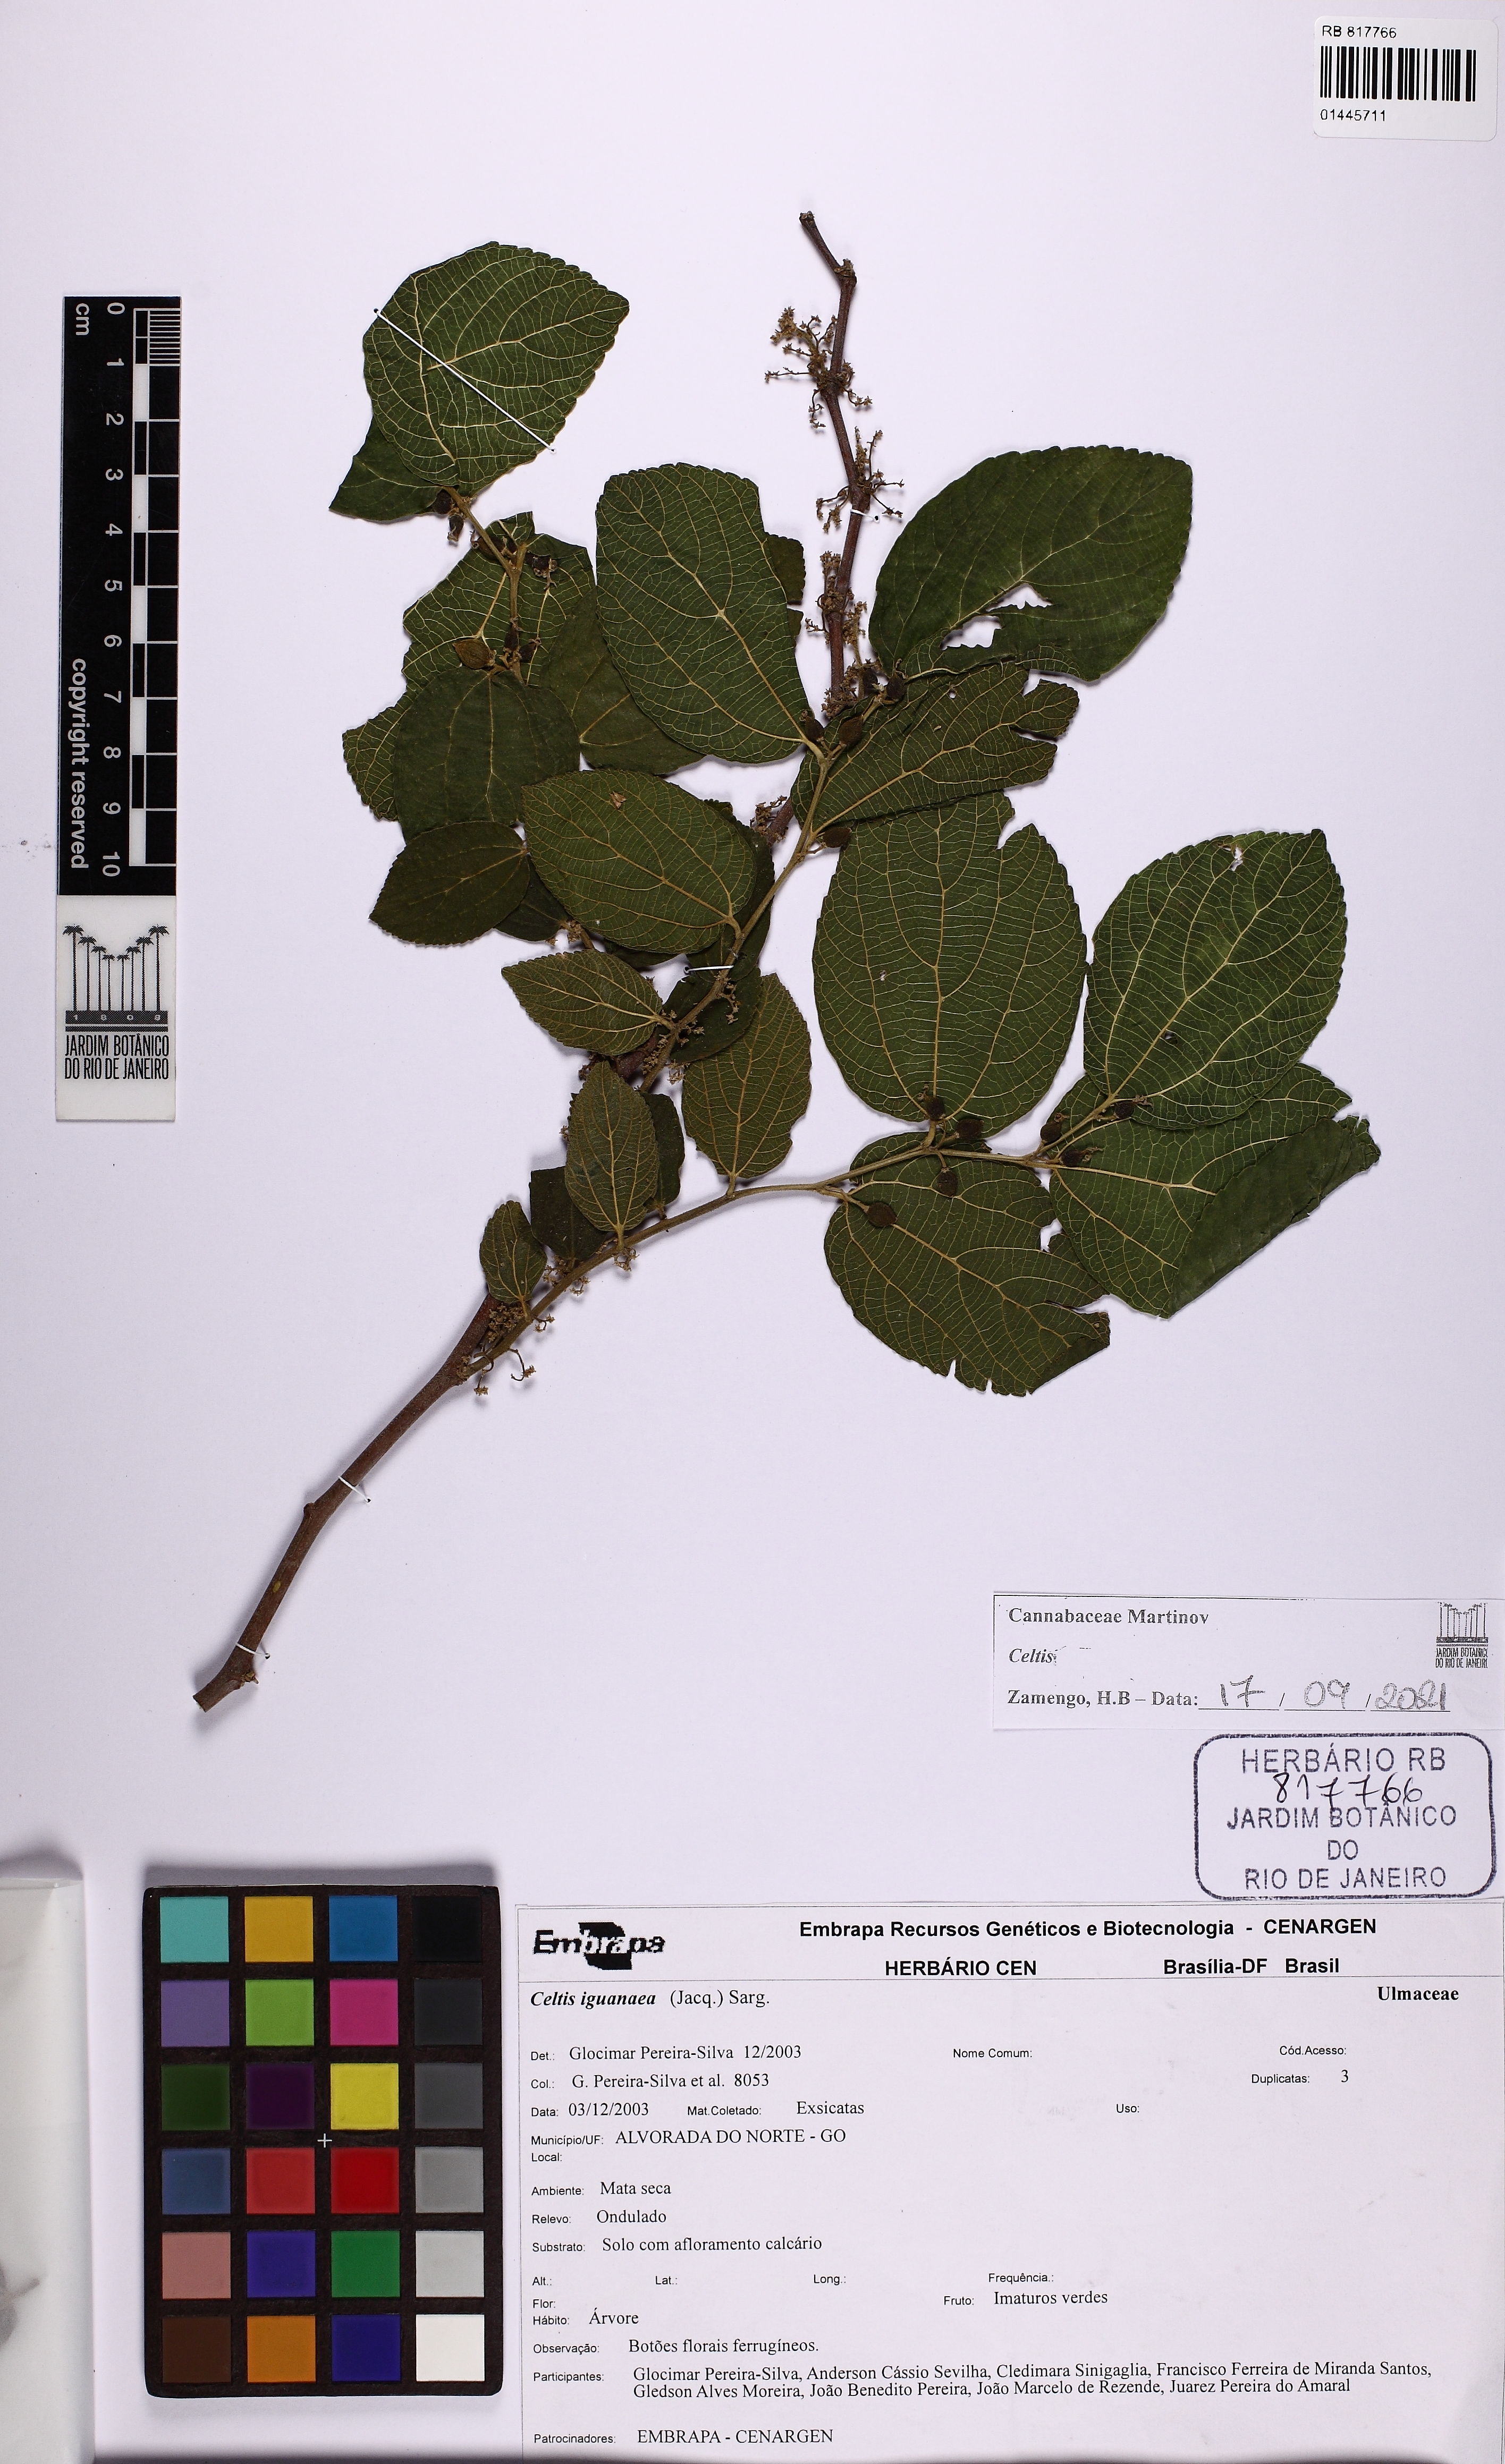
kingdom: Plantae
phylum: Tracheophyta
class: Magnoliopsida
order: Rosales
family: Cannabaceae
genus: Celtis
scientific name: Celtis
